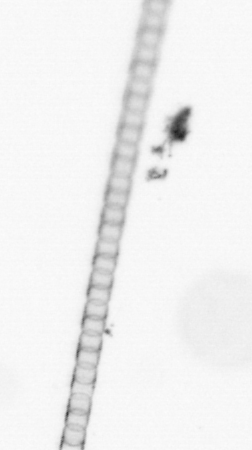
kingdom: Chromista
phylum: Ochrophyta
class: Bacillariophyceae
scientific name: Bacillariophyceae
